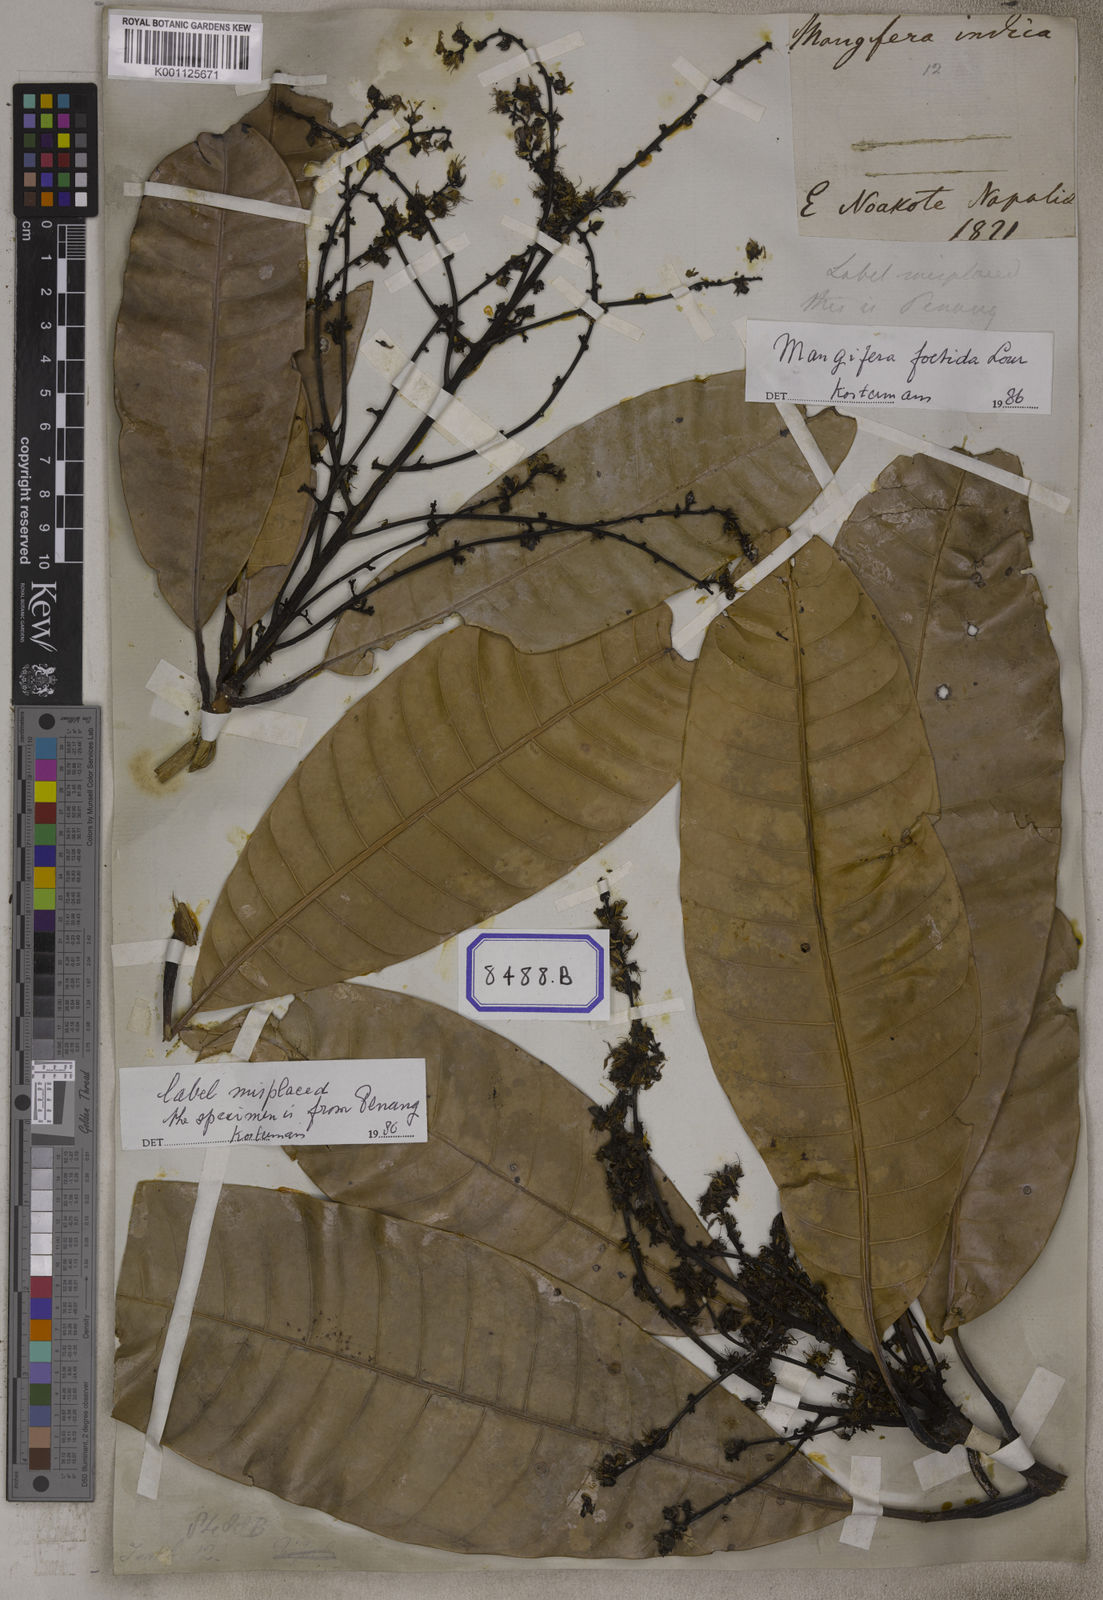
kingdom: Plantae
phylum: Tracheophyta
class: Magnoliopsida
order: Sapindales
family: Anacardiaceae
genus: Mangifera
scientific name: Mangifera foetida
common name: Horse mango
